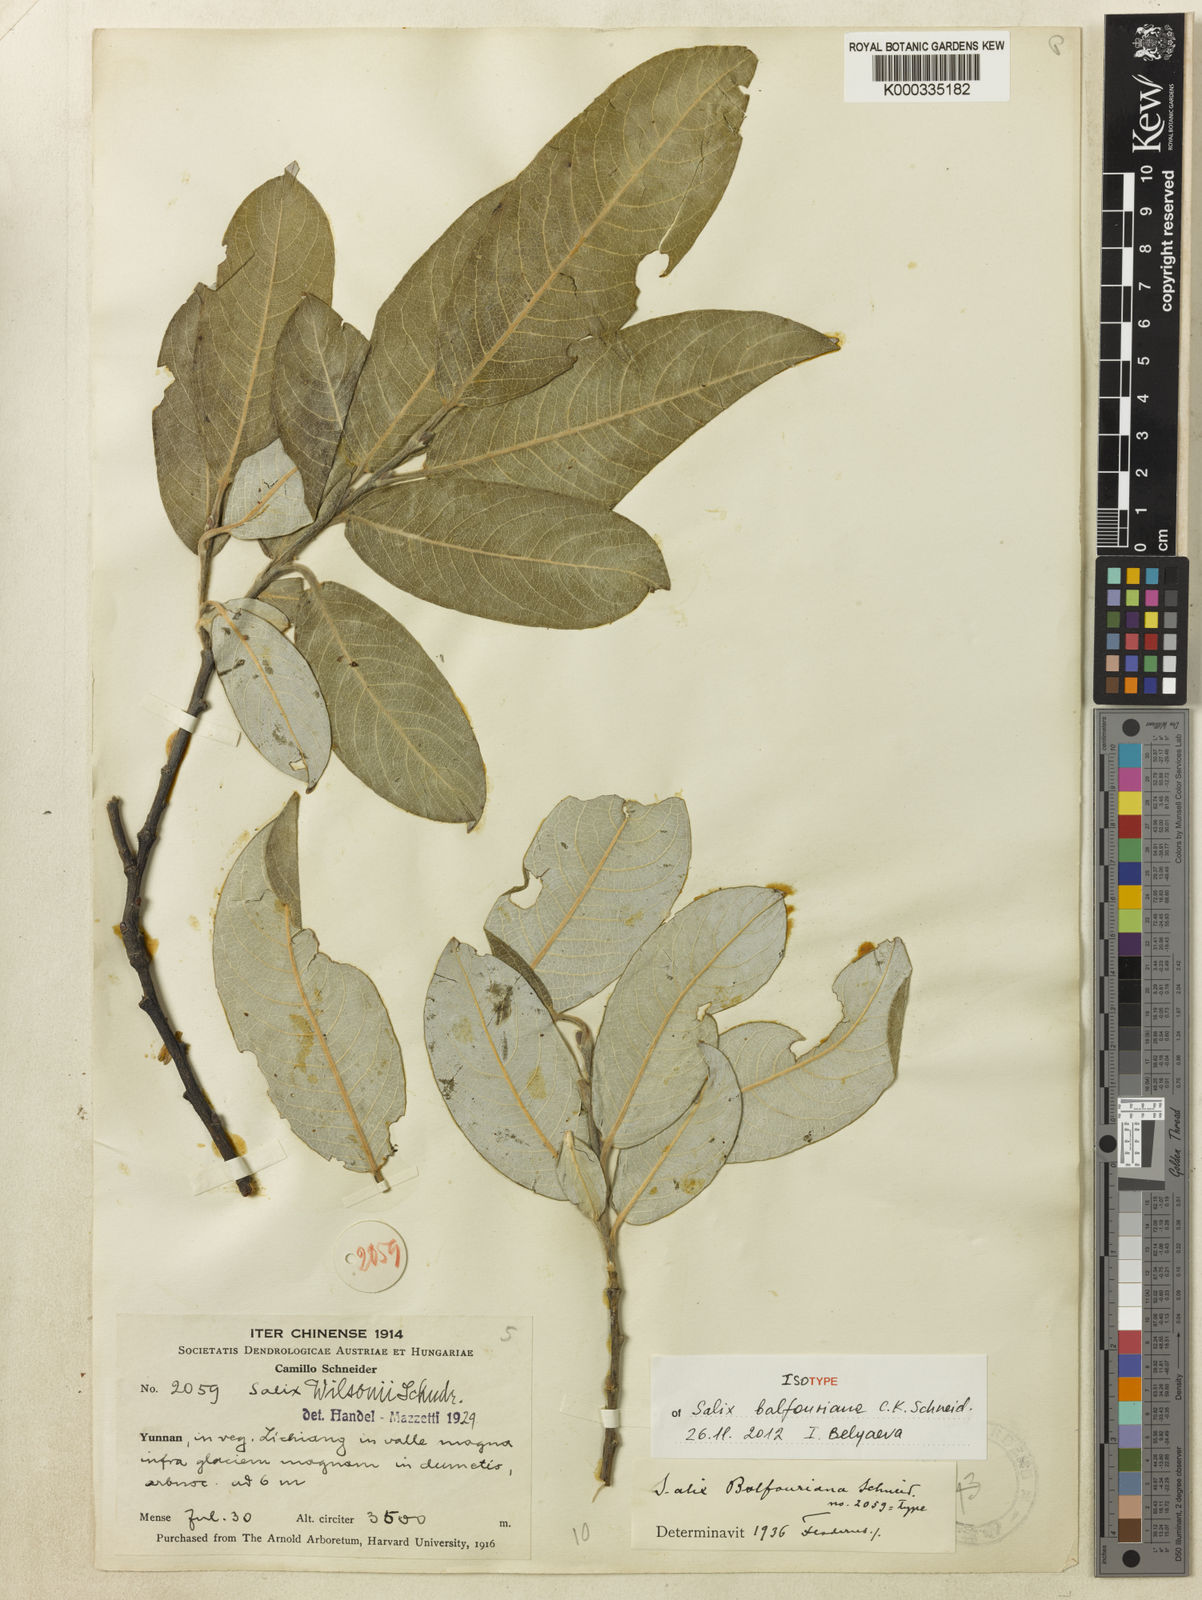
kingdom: Plantae
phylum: Tracheophyta
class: Magnoliopsida
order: Malpighiales
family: Salicaceae
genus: Salix
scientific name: Salix
